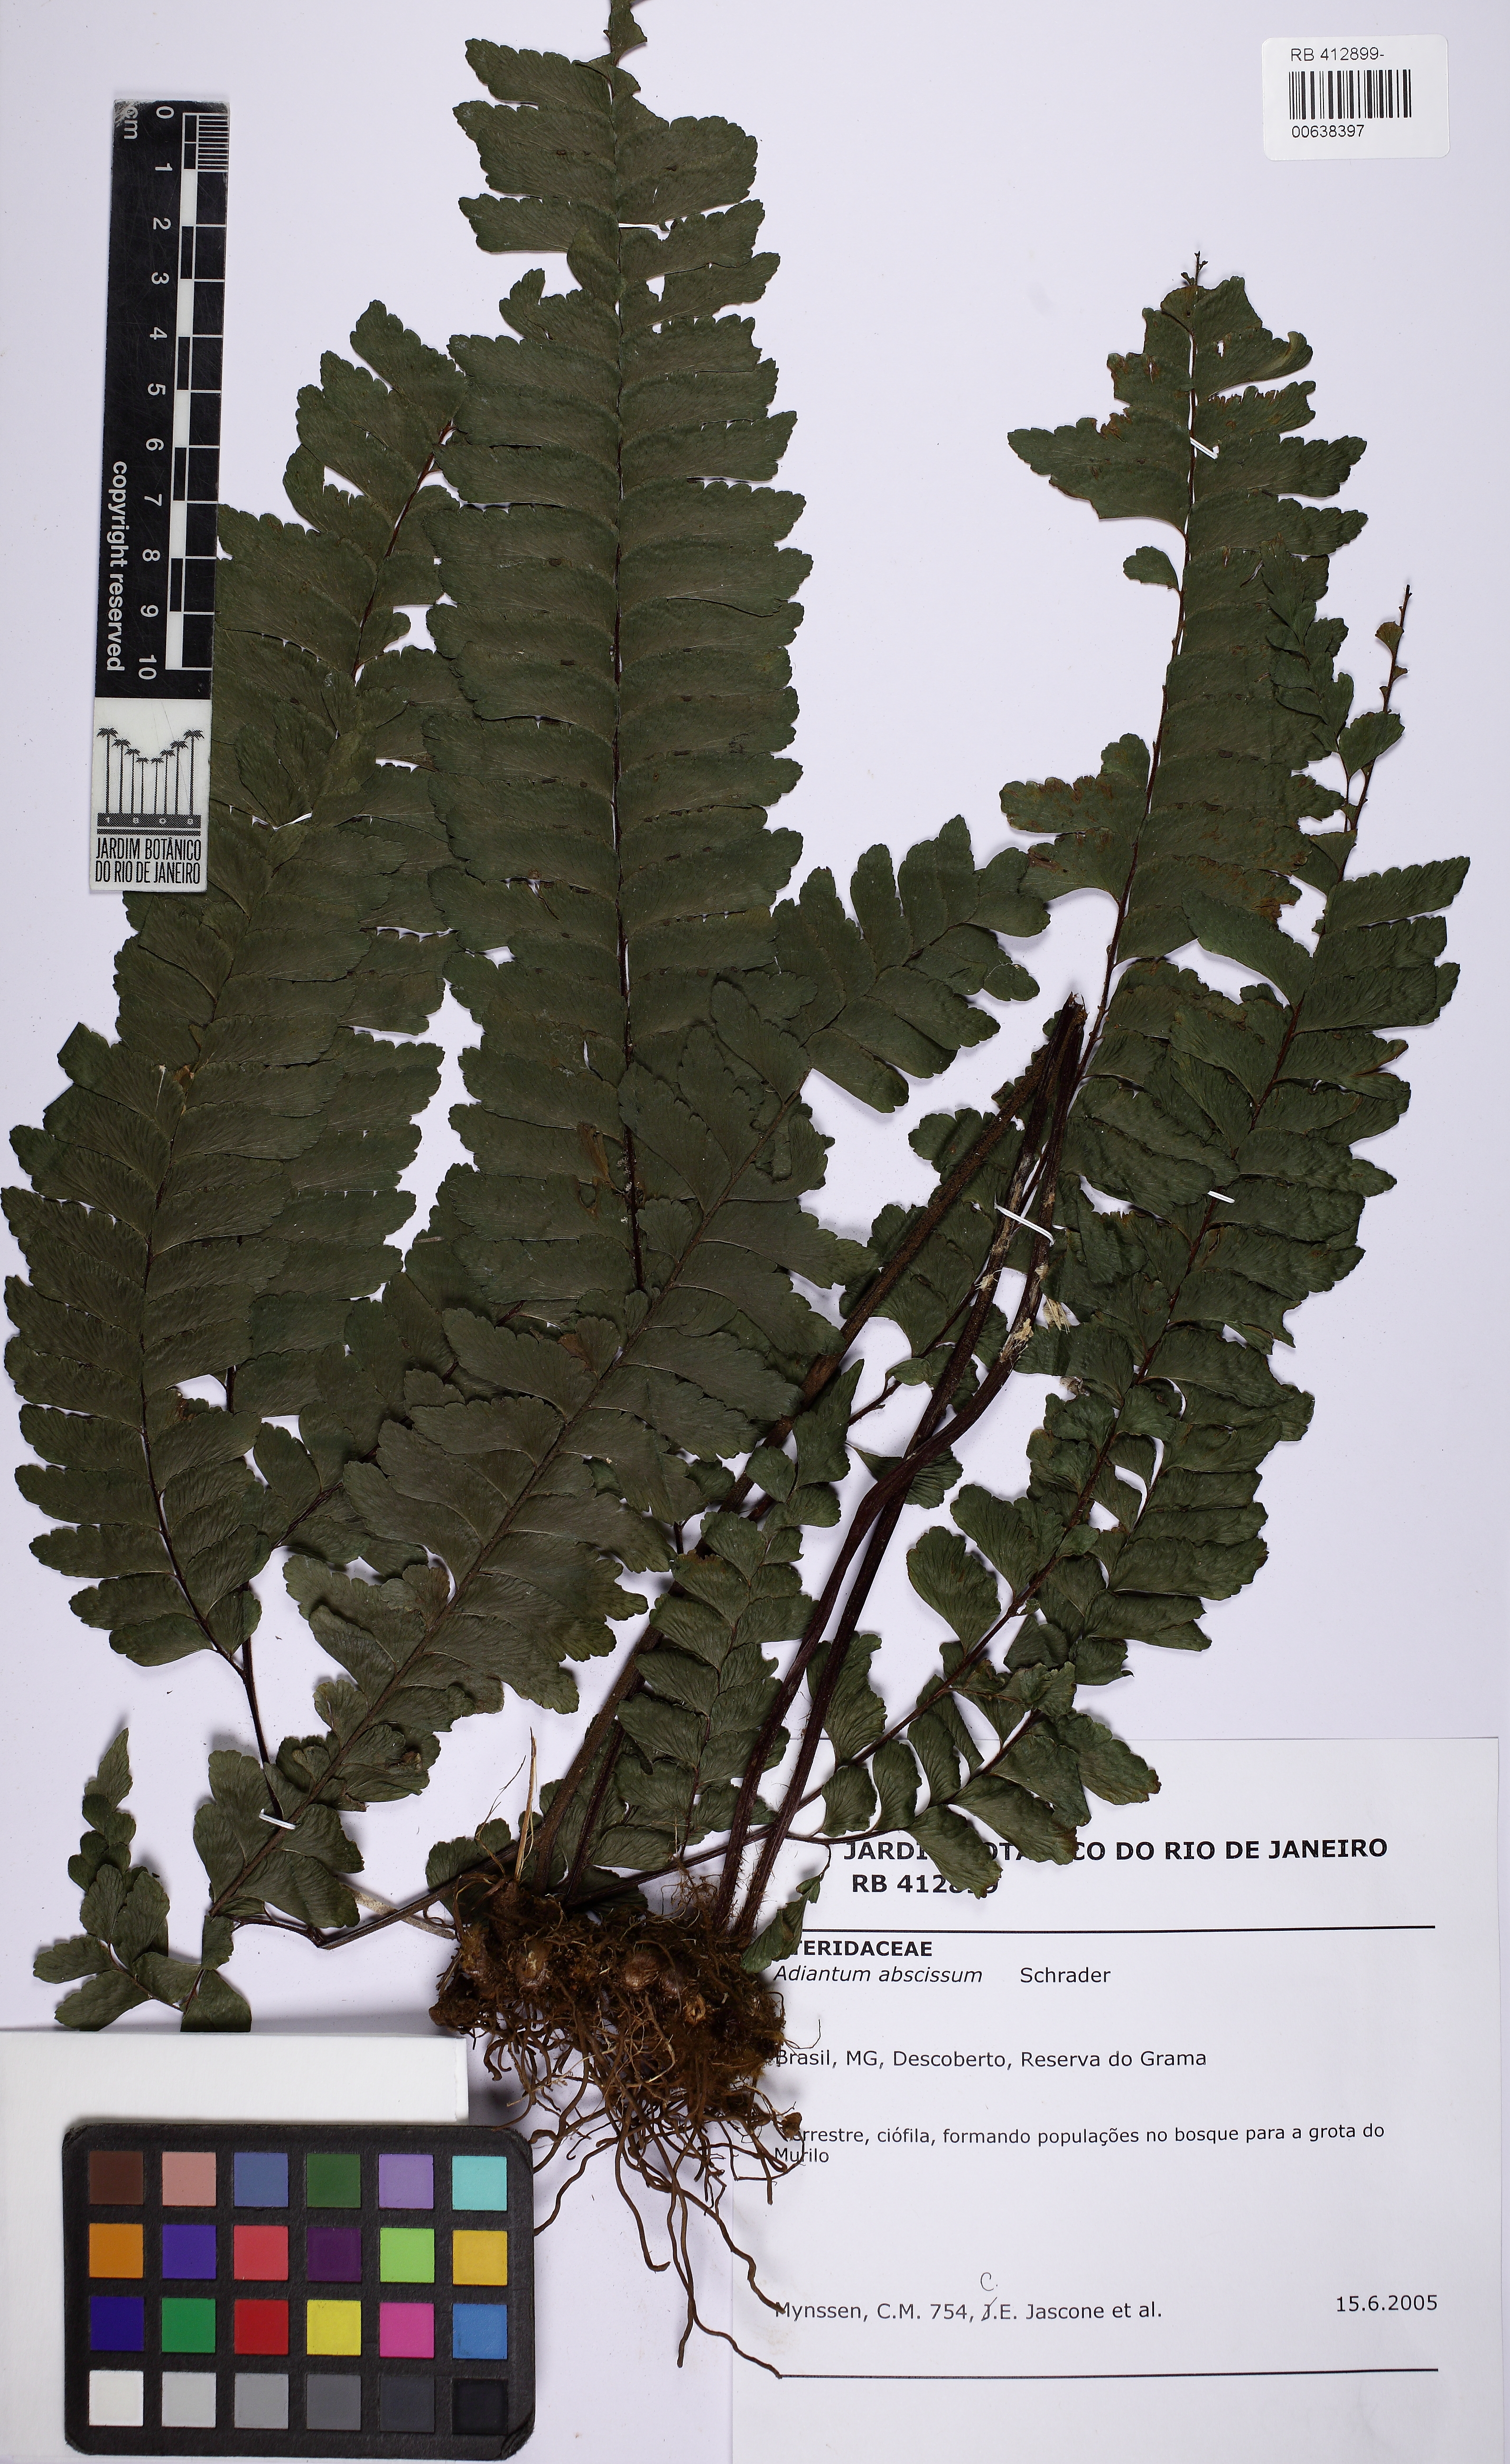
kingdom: Plantae
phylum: Tracheophyta
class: Polypodiopsida
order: Polypodiales
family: Pteridaceae
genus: Adiantum
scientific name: Adiantum abscissum
